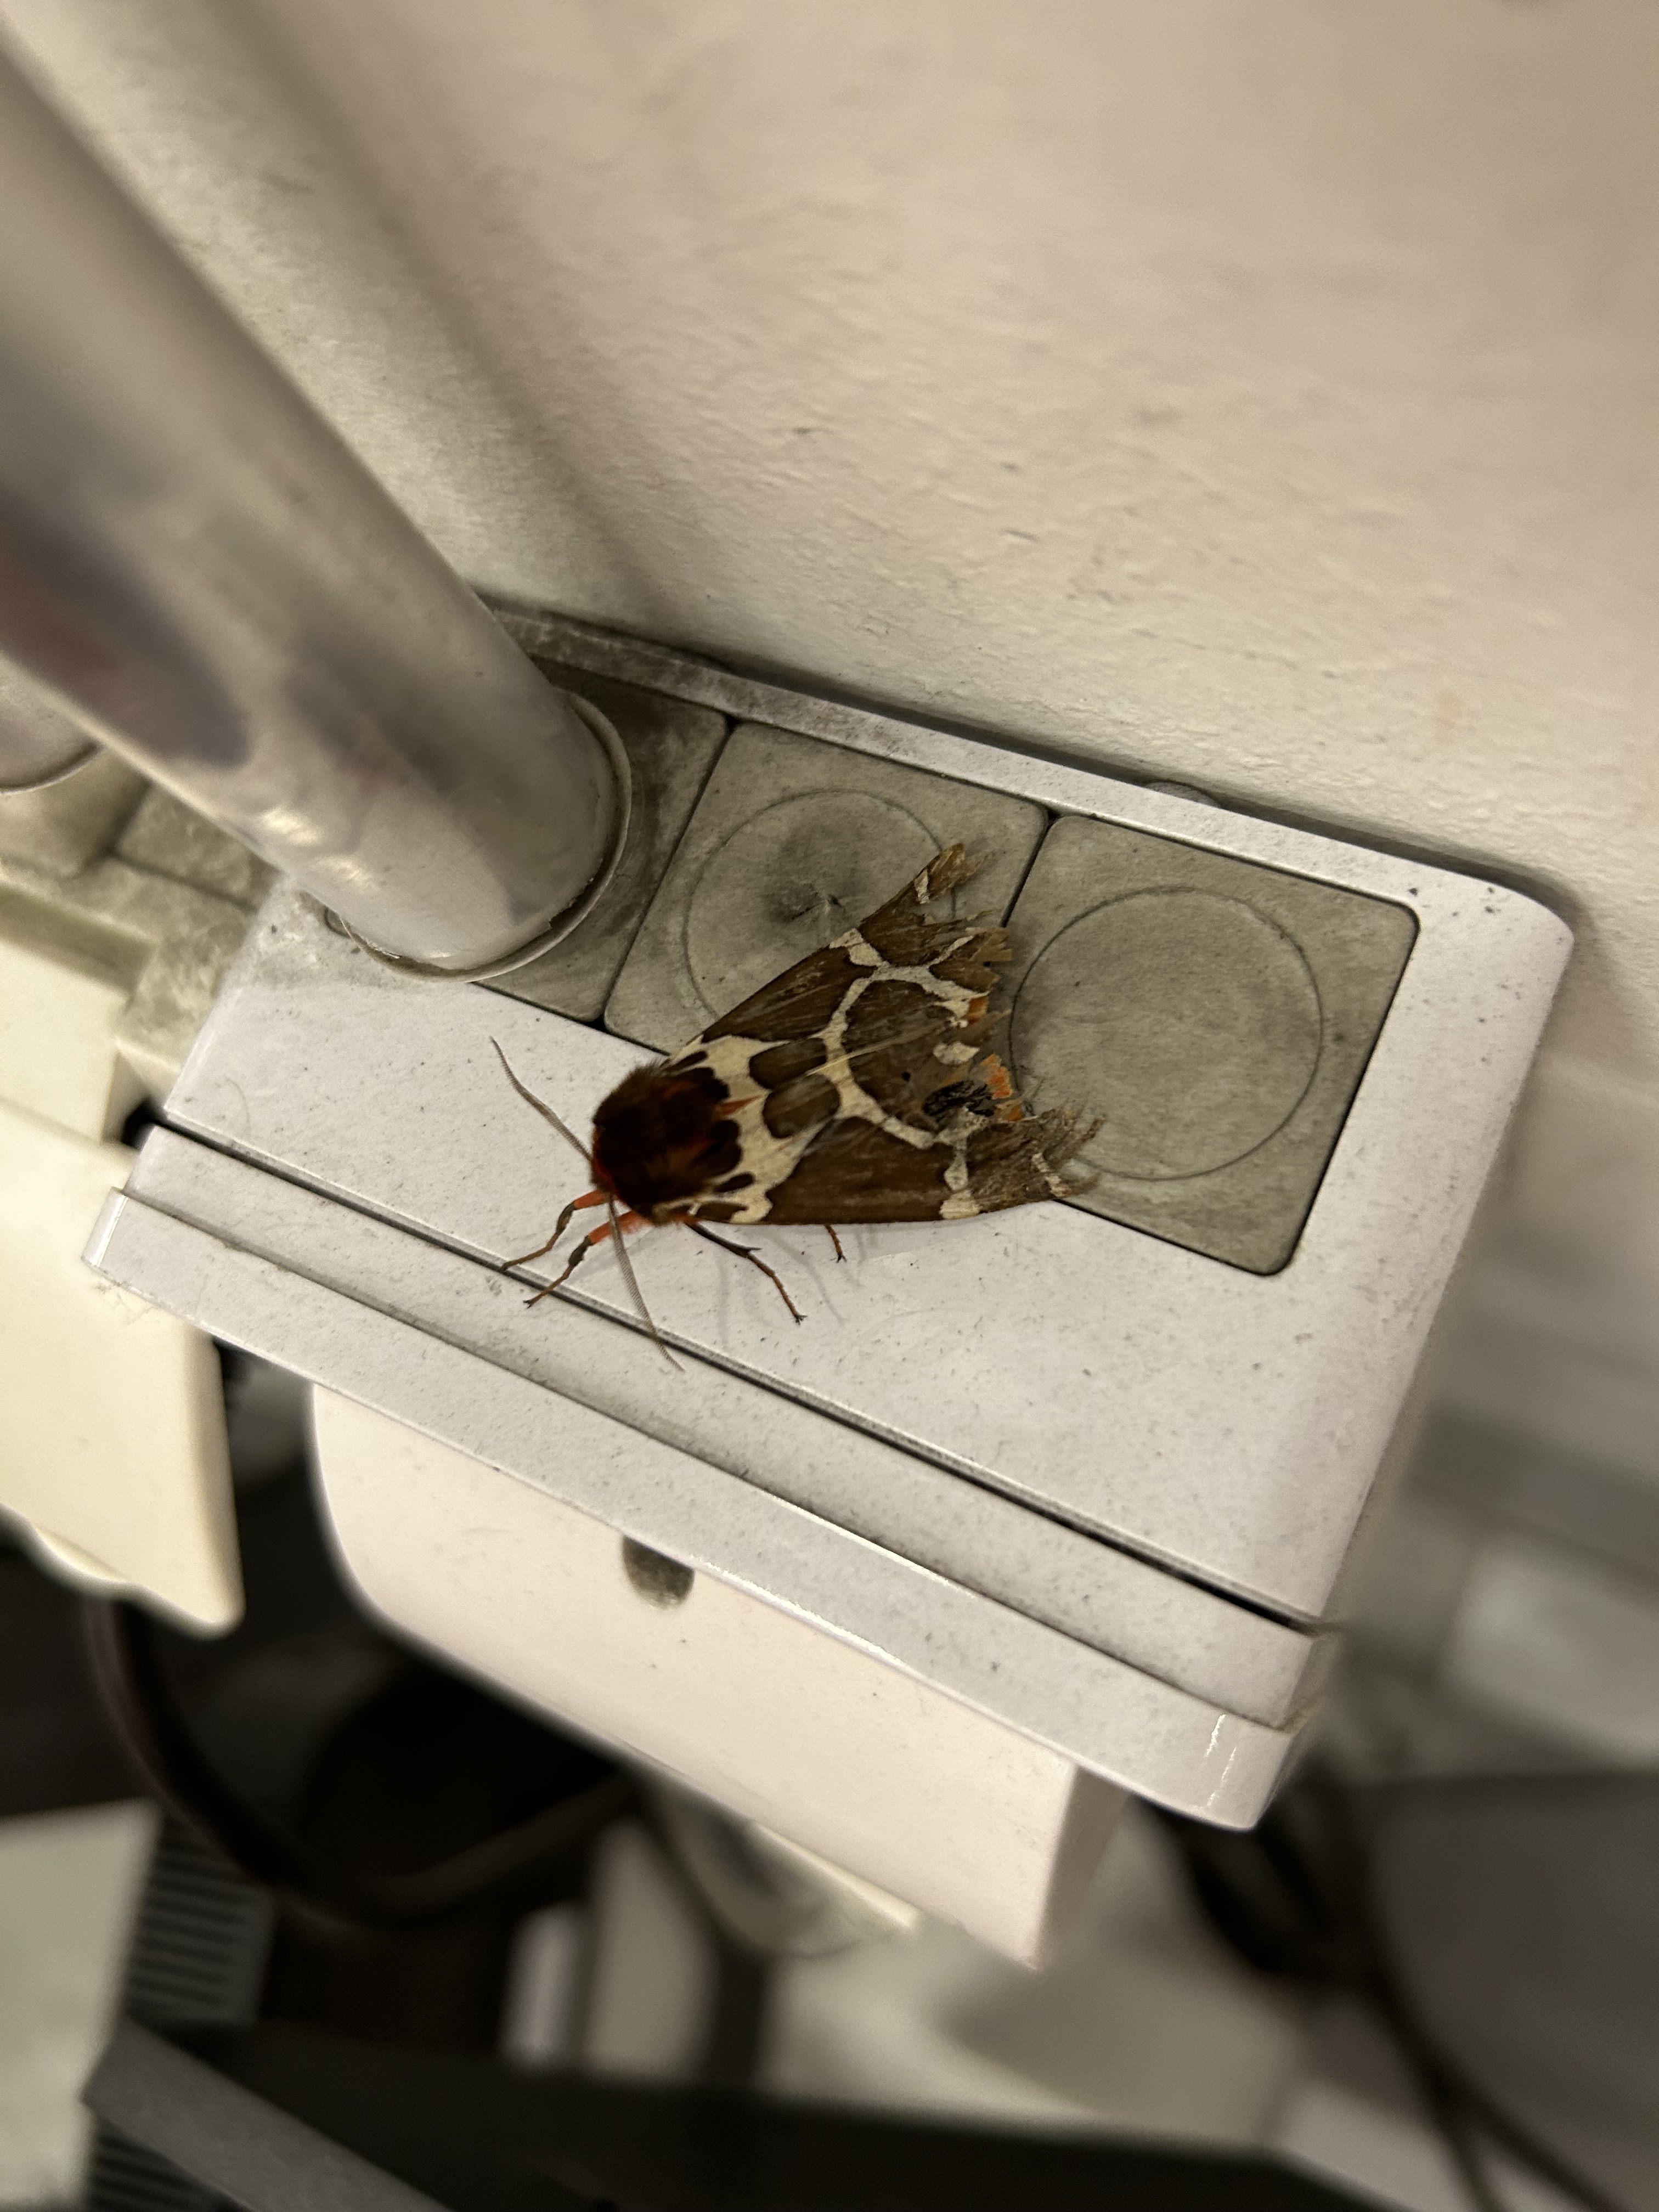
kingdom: Animalia
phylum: Arthropoda
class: Insecta
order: Lepidoptera
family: Erebidae
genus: Arctia
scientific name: Arctia caja
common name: Garden tiger
